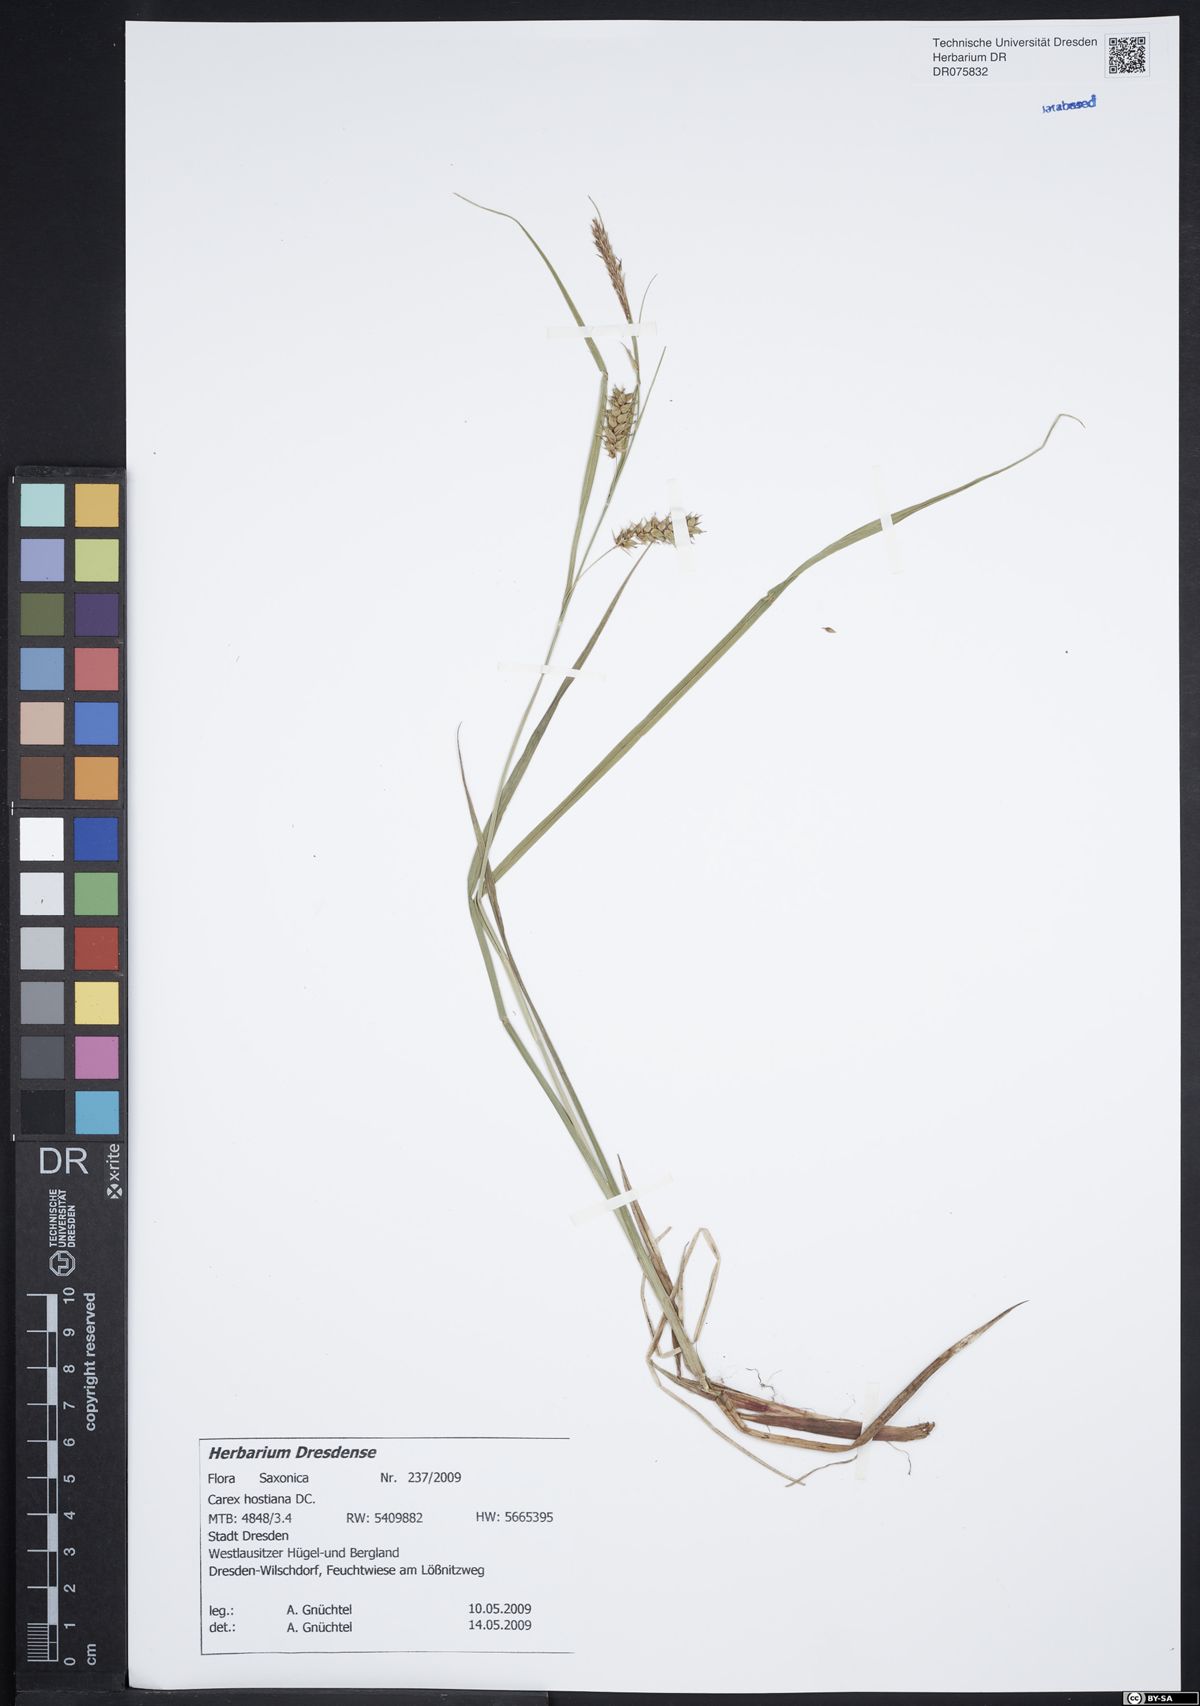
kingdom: Plantae
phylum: Tracheophyta
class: Liliopsida
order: Poales
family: Cyperaceae
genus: Carex
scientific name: Carex hostiana
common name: Tawny sedge
